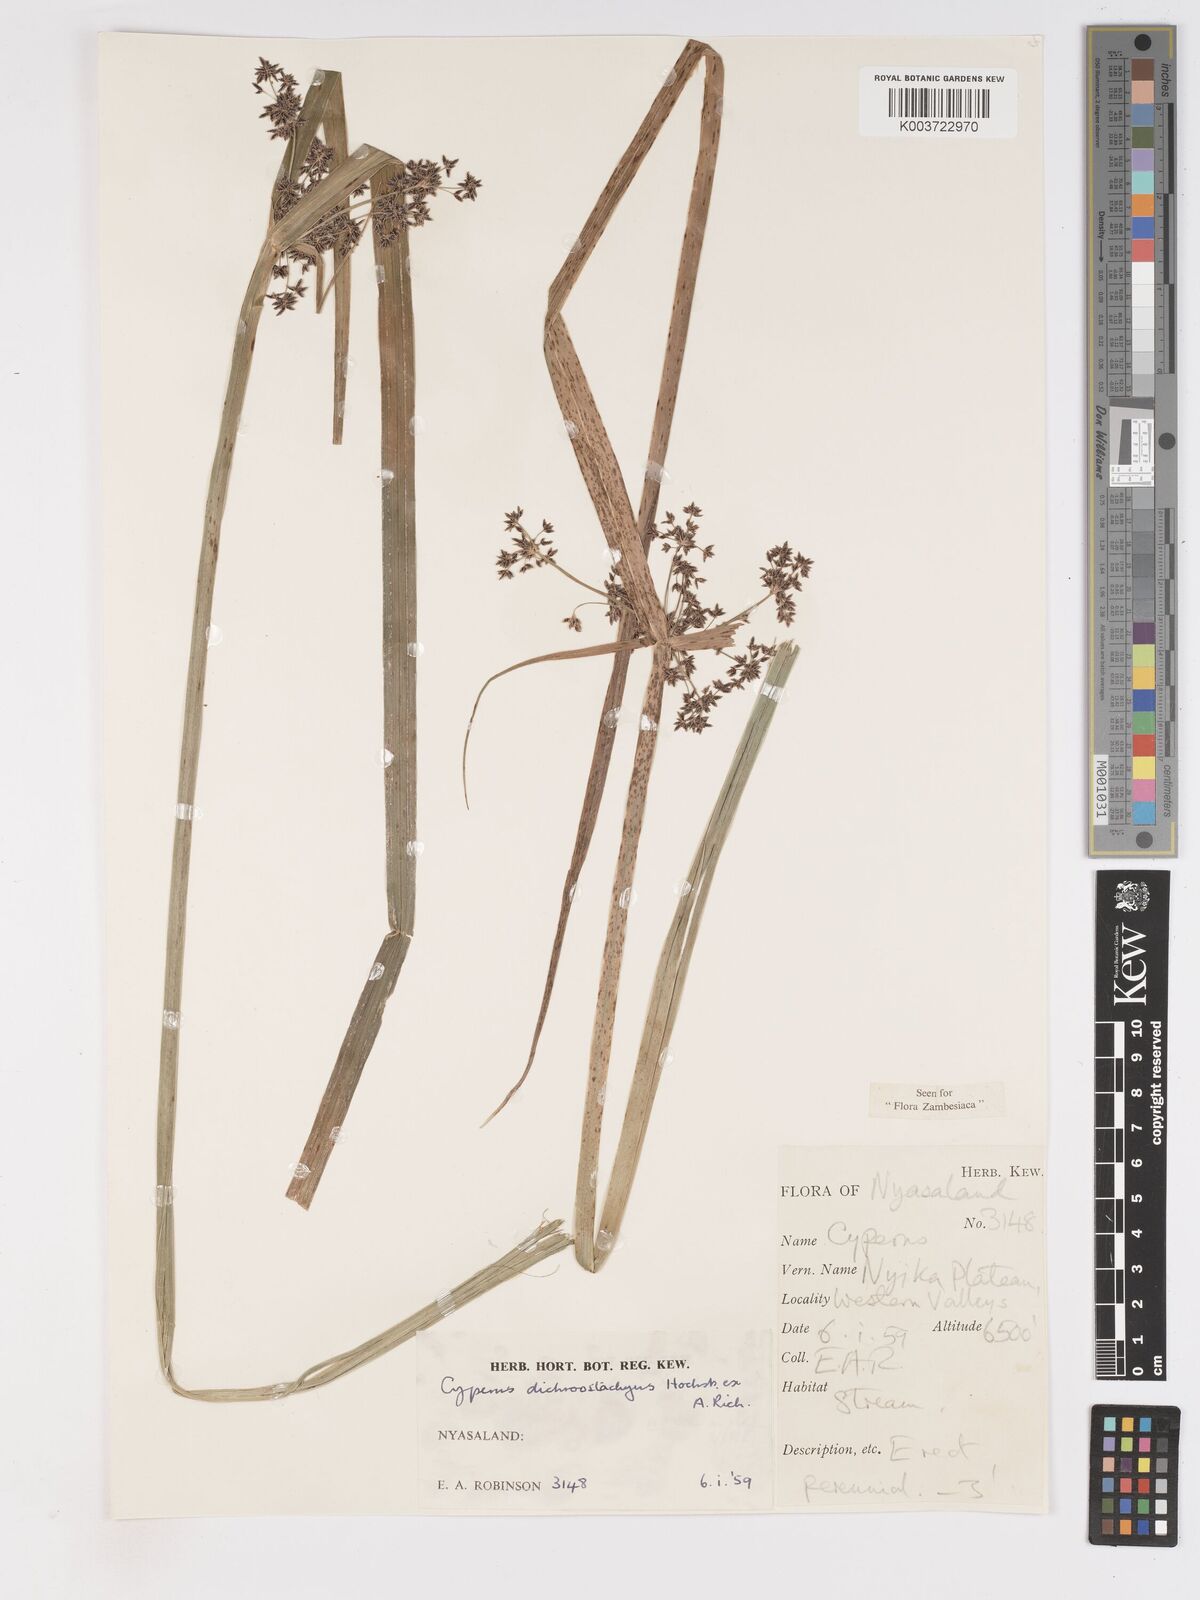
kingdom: Plantae
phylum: Tracheophyta
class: Liliopsida
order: Poales
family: Cyperaceae
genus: Cyperus
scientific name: Cyperus dichrostachyus
